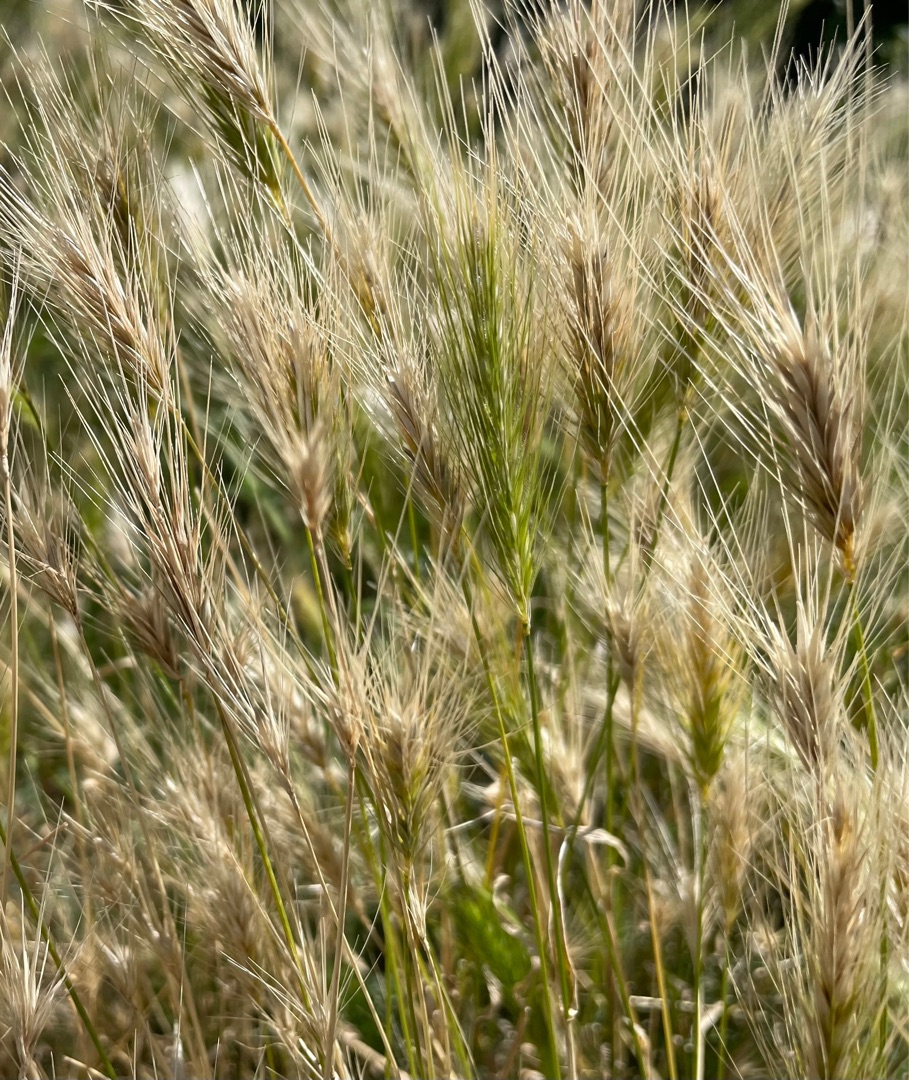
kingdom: Plantae
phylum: Tracheophyta
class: Liliopsida
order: Poales
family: Poaceae
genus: Hordeum
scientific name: Hordeum murinum
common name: Gold byg
